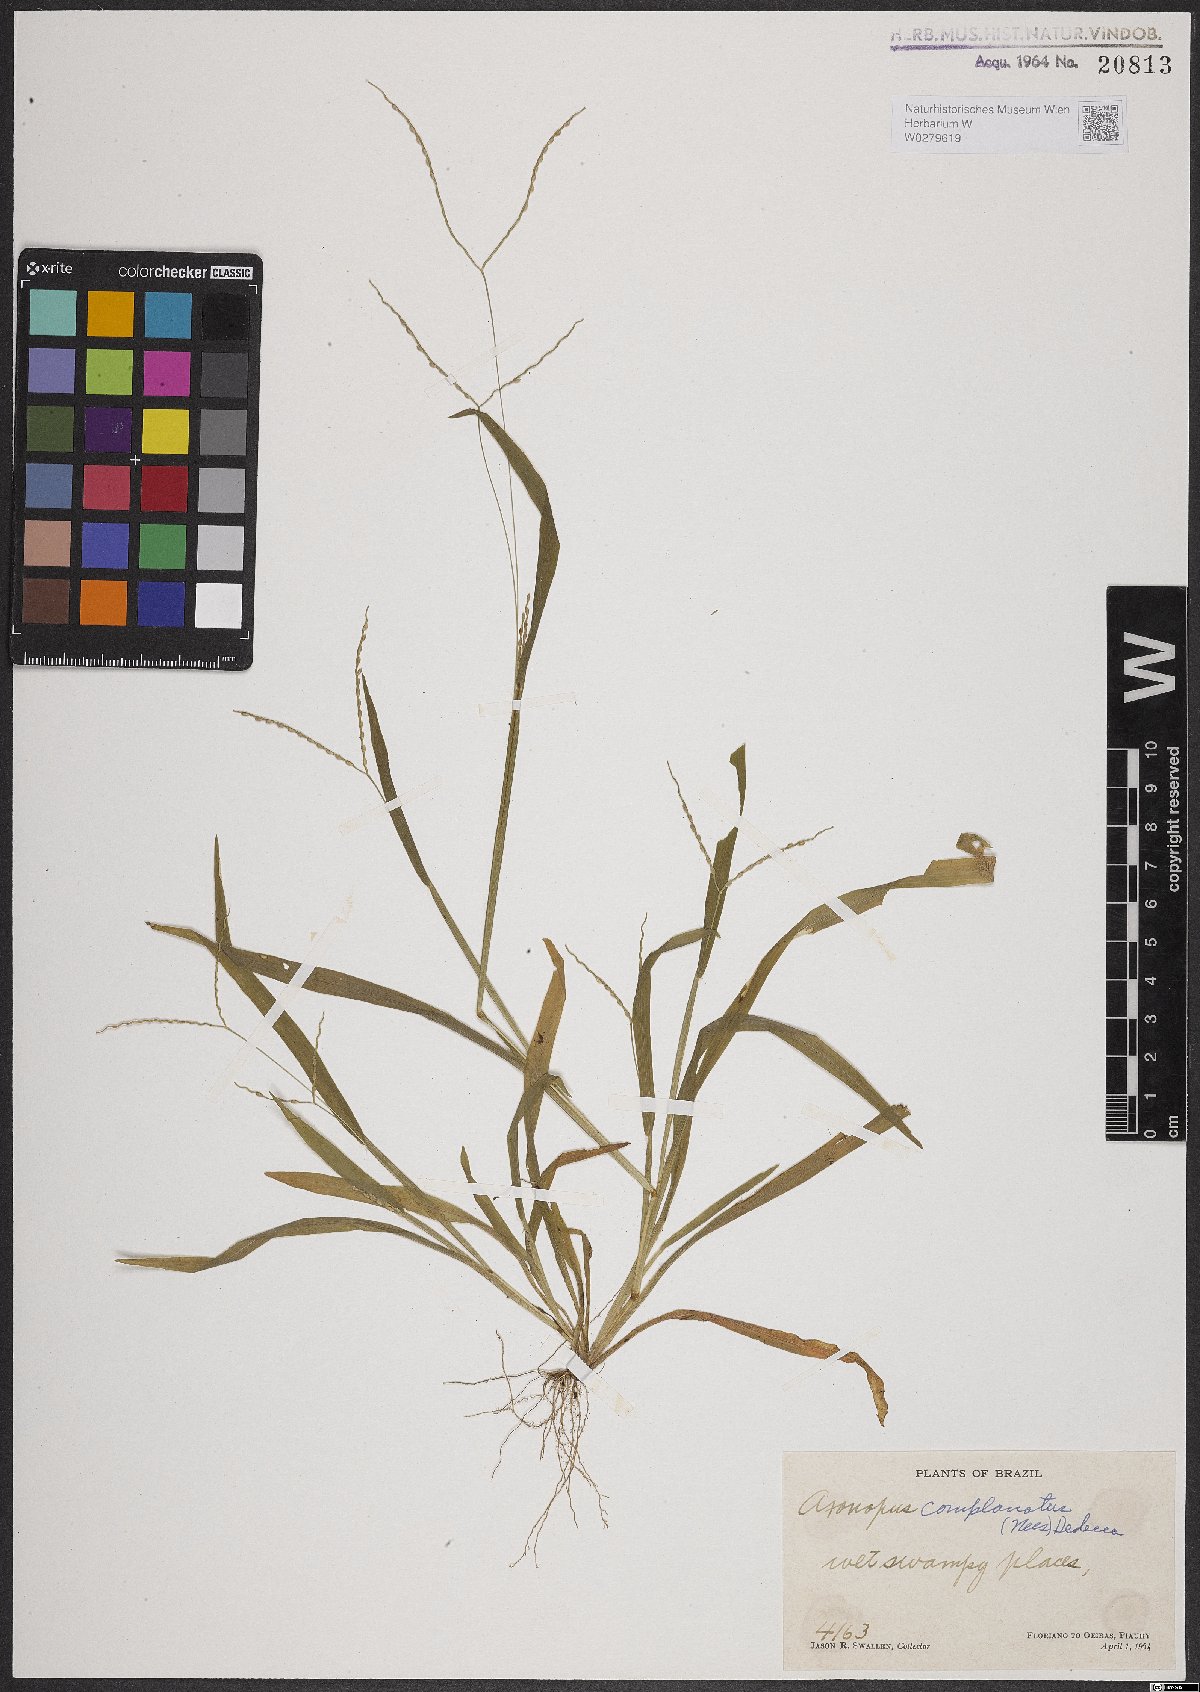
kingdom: Plantae
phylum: Tracheophyta
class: Liliopsida
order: Poales
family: Poaceae
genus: Axonopus
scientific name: Axonopus complanatus
